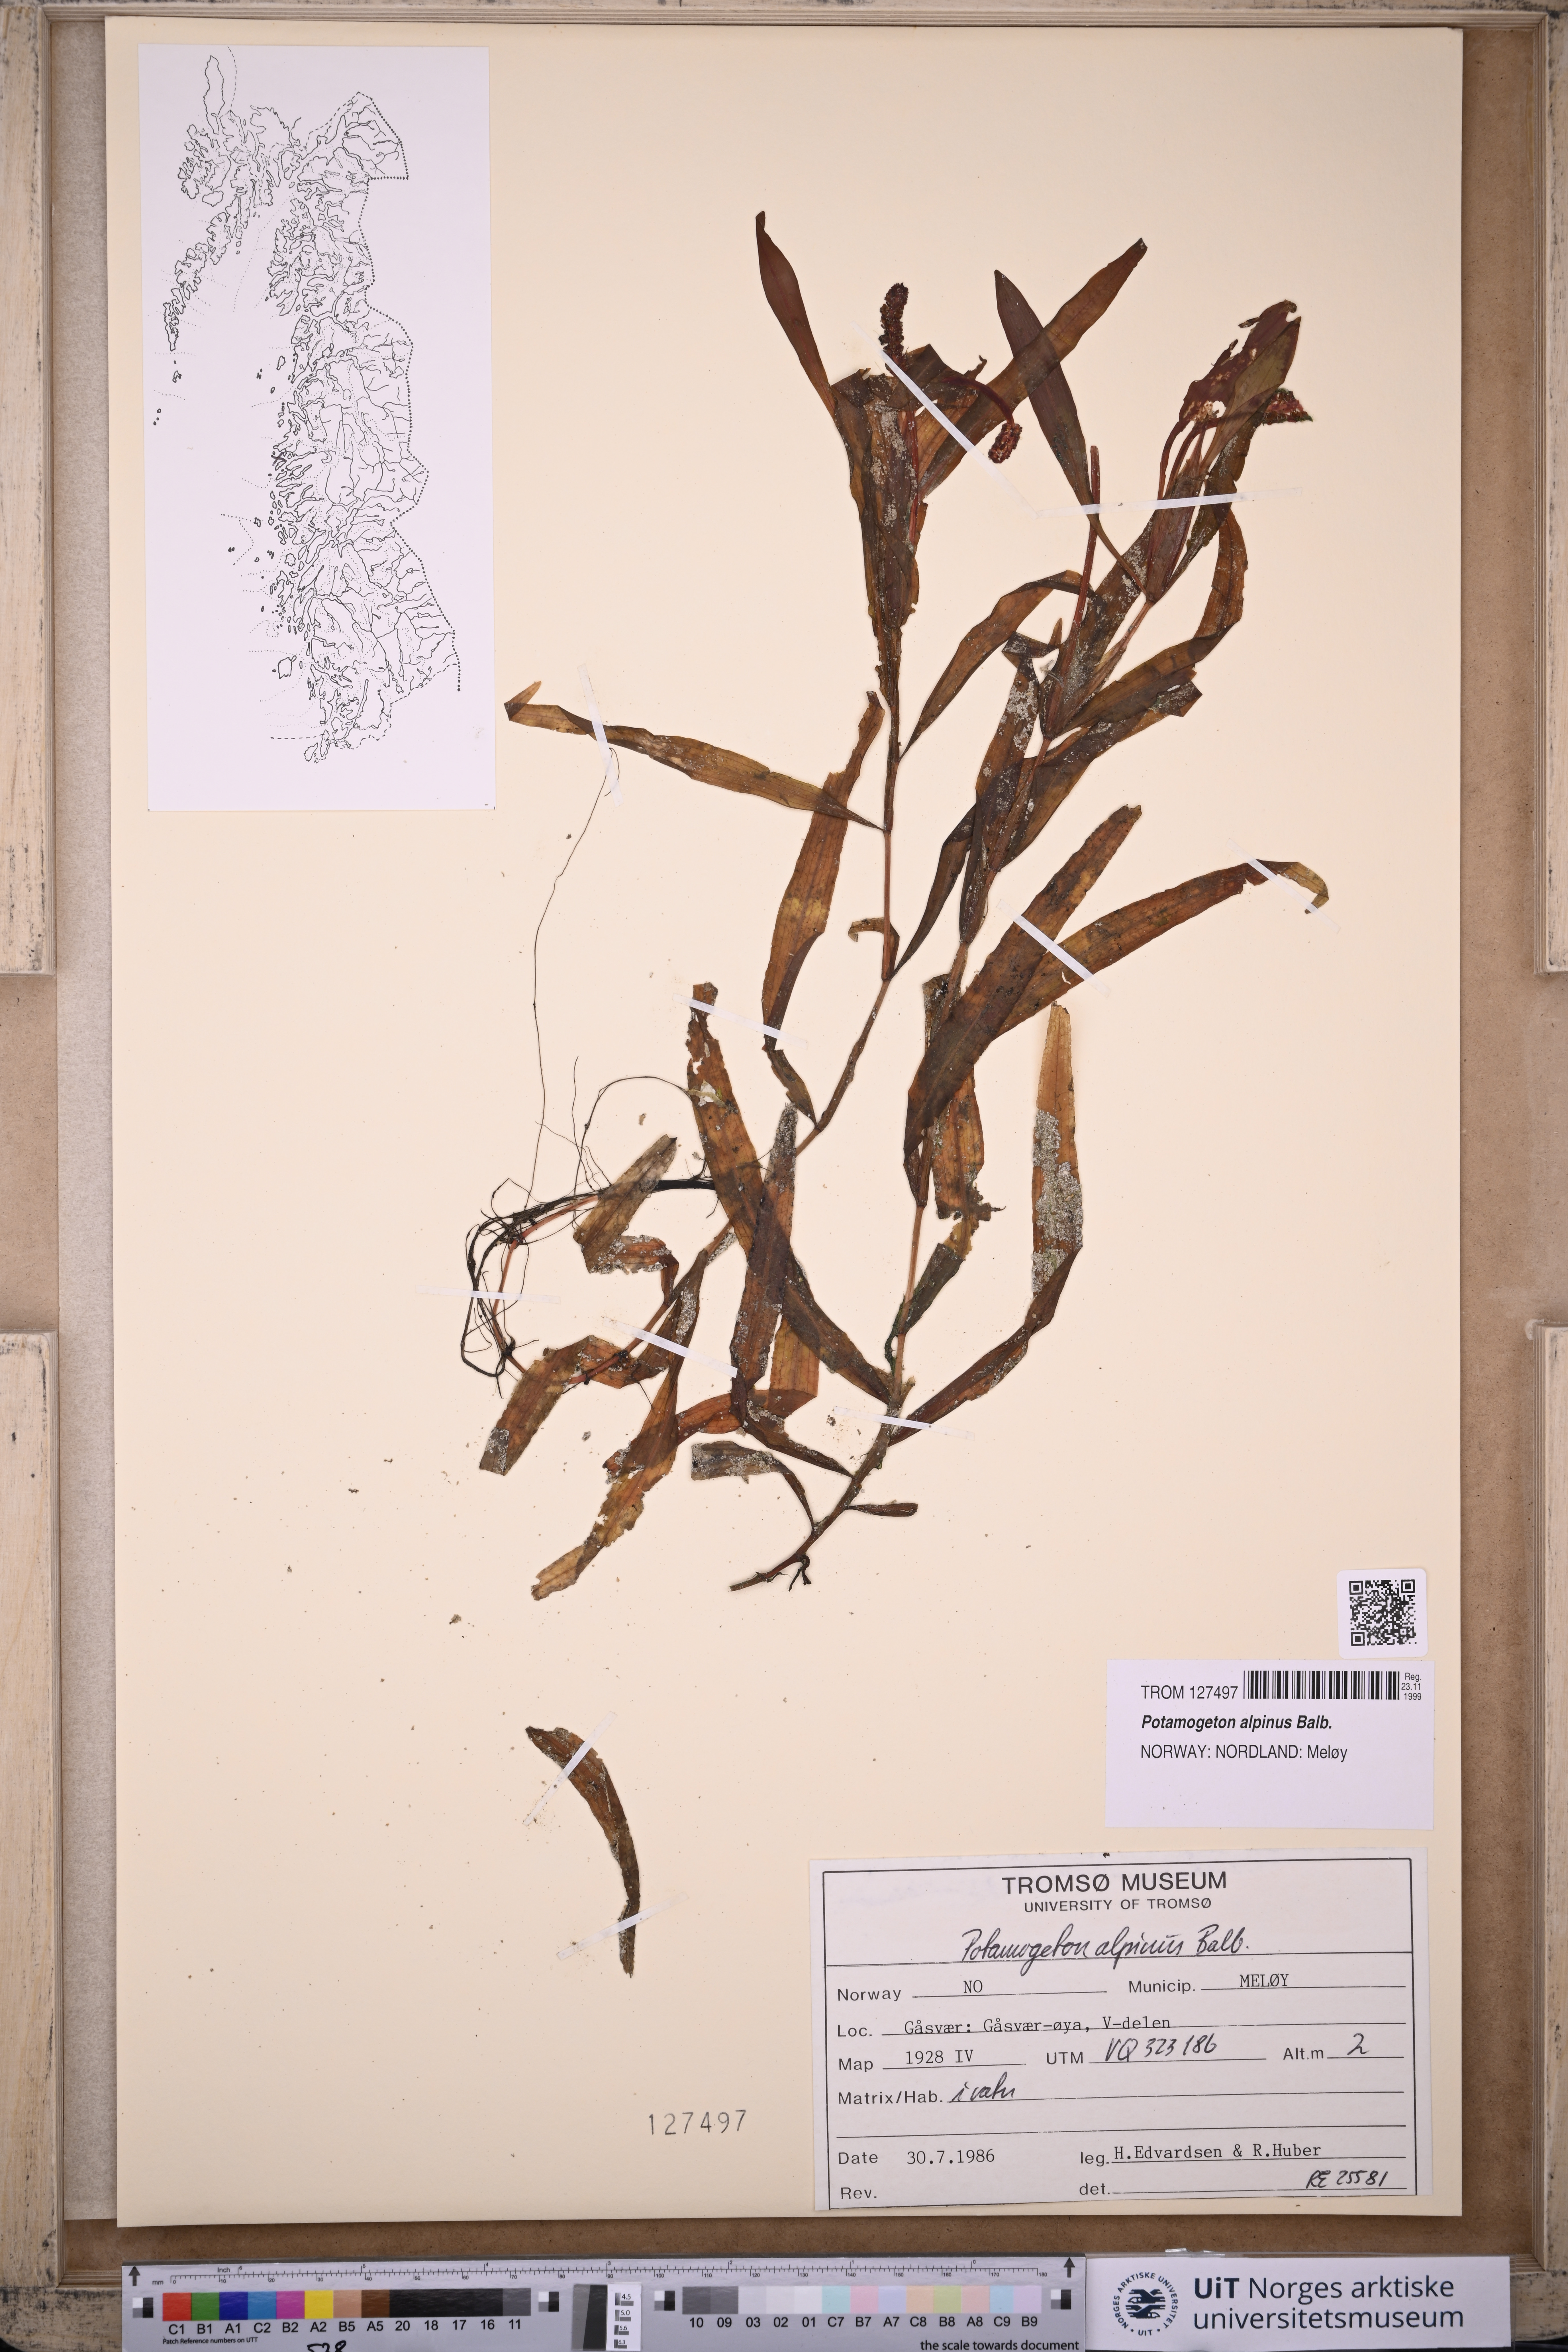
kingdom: Plantae
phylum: Tracheophyta
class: Liliopsida
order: Alismatales
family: Potamogetonaceae
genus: Potamogeton
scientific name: Potamogeton alpinus
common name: Red pondweed
